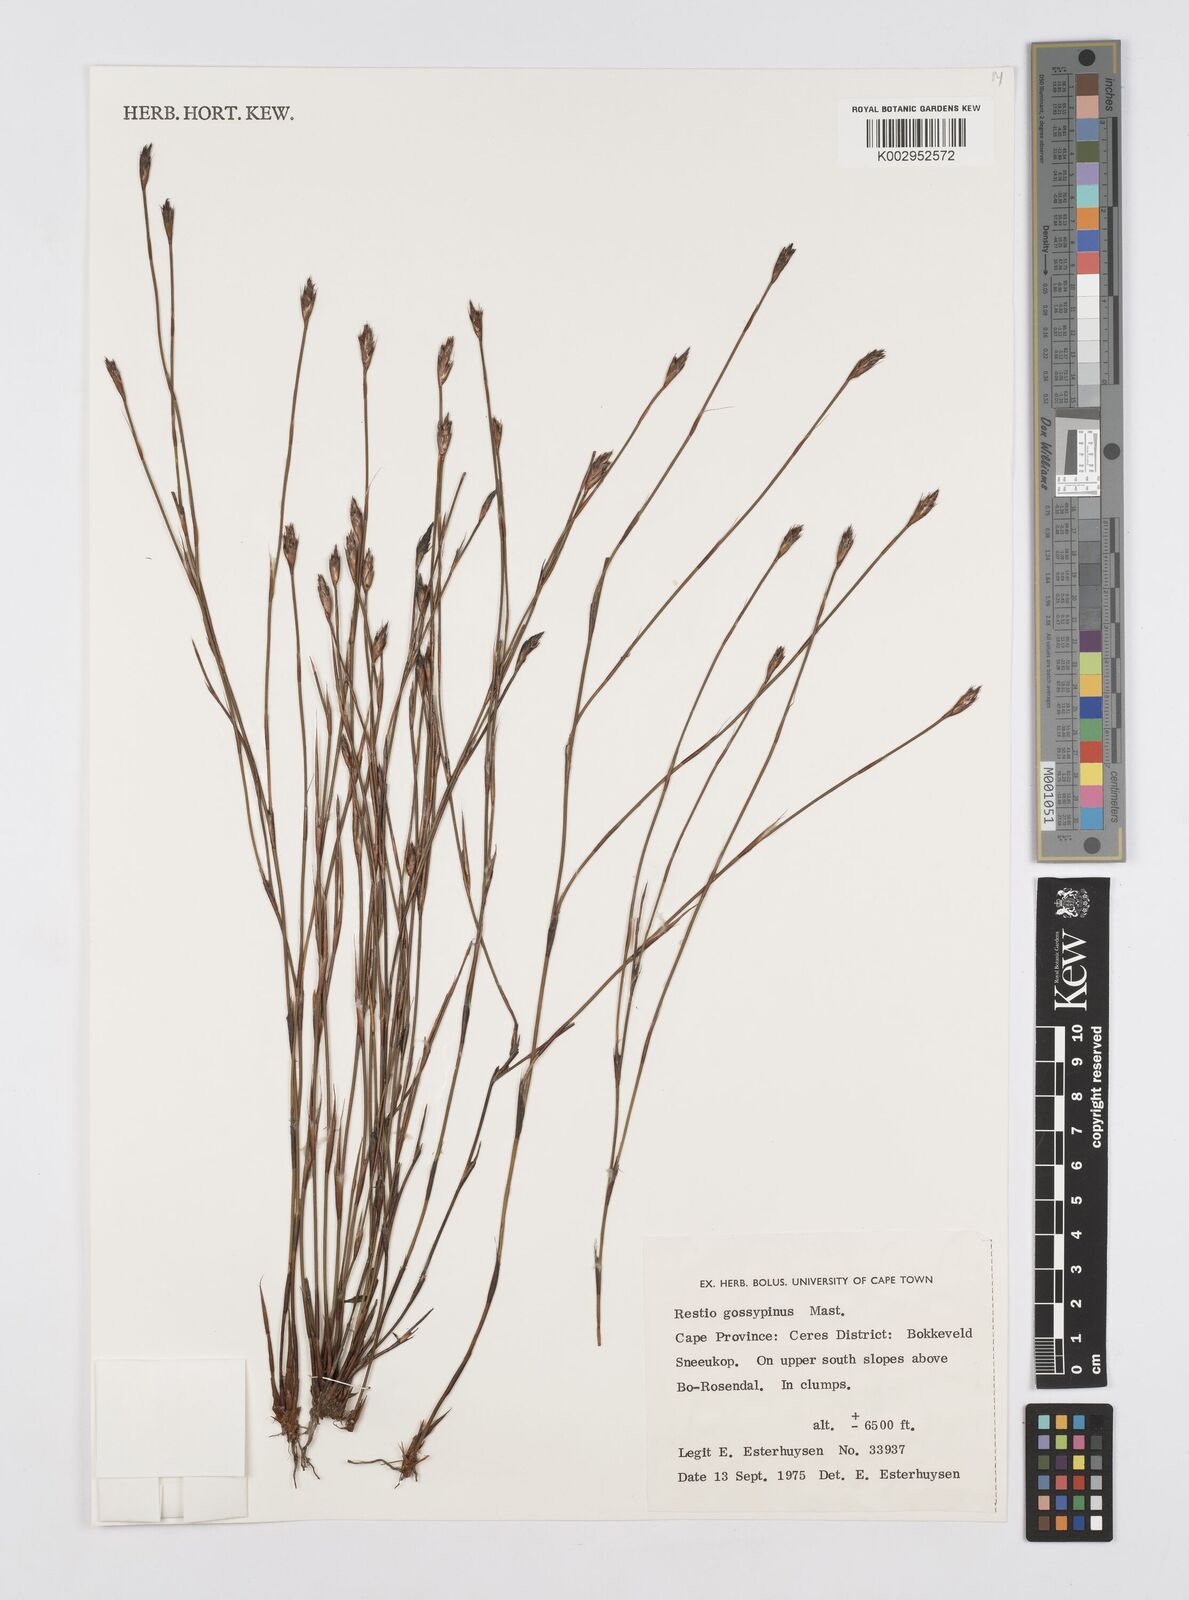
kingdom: Plantae
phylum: Tracheophyta
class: Liliopsida
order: Poales
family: Restionaceae
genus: Restio
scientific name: Restio gossypinus
